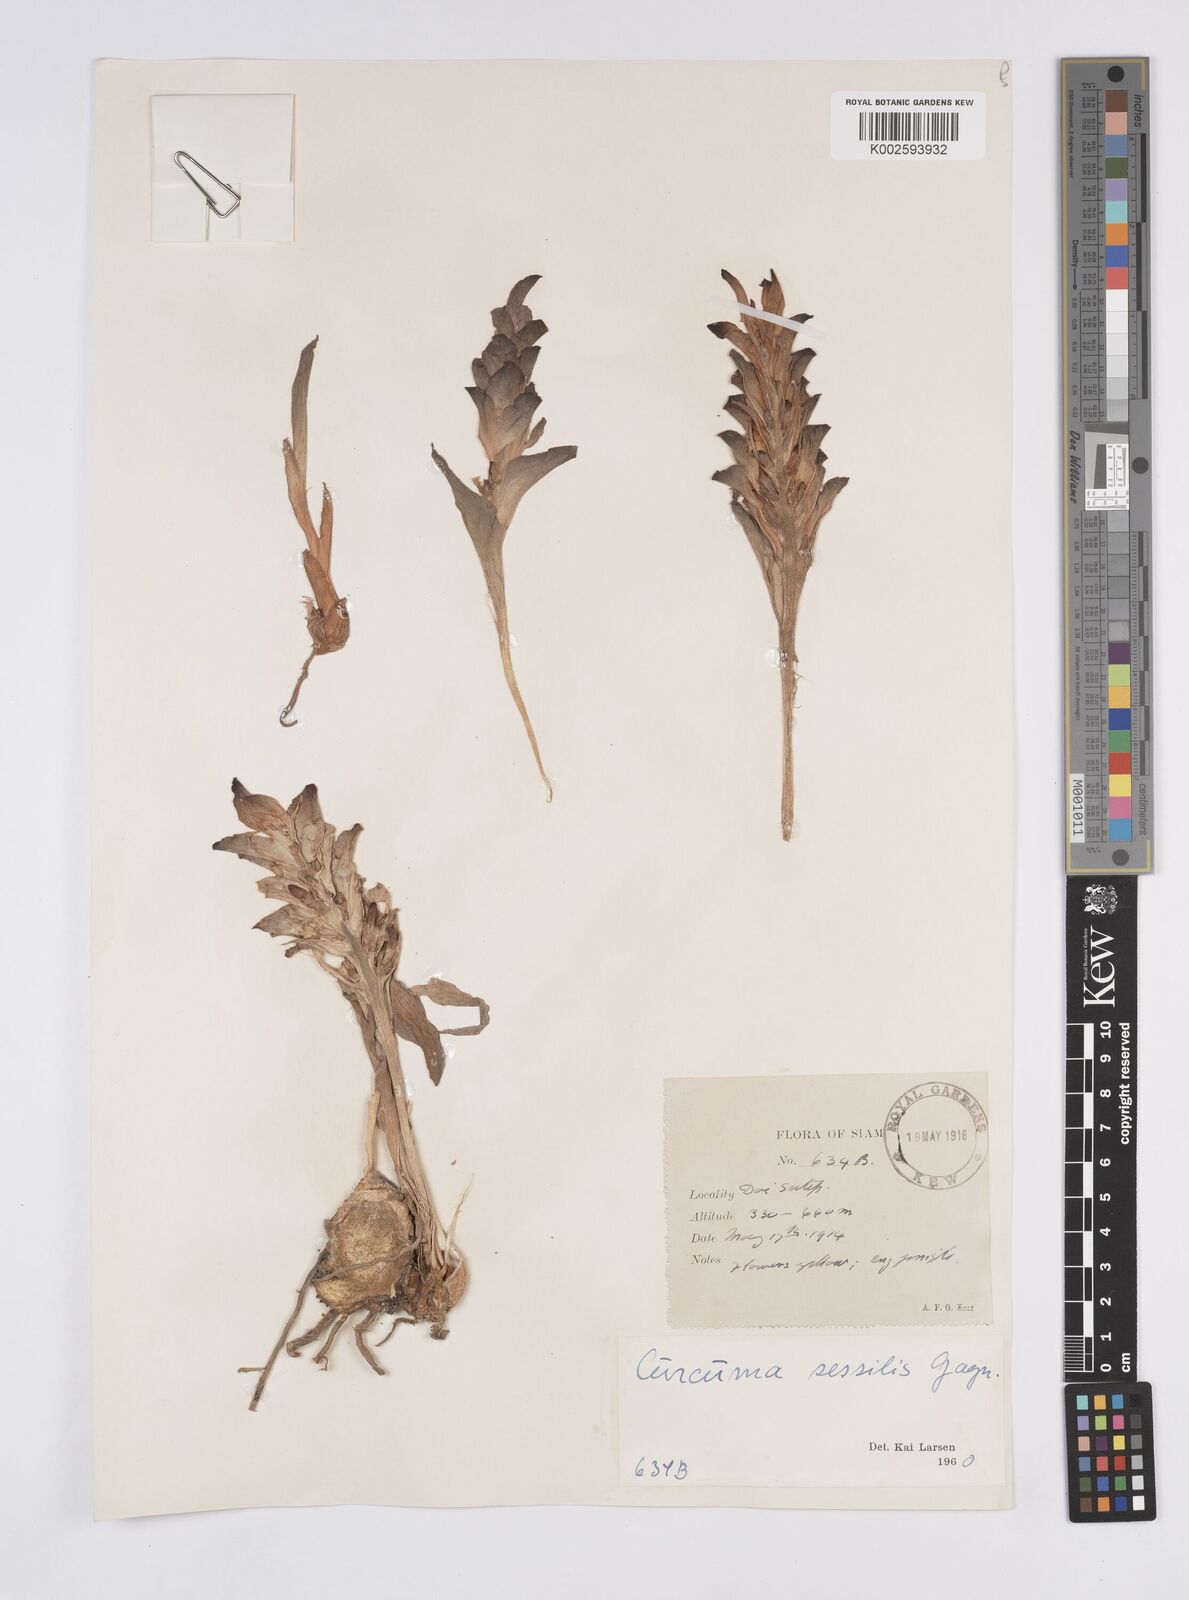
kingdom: Plantae
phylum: Tracheophyta
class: Liliopsida
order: Zingiberales
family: Zingiberaceae
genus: Curcuma
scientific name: Curcuma sessilis
